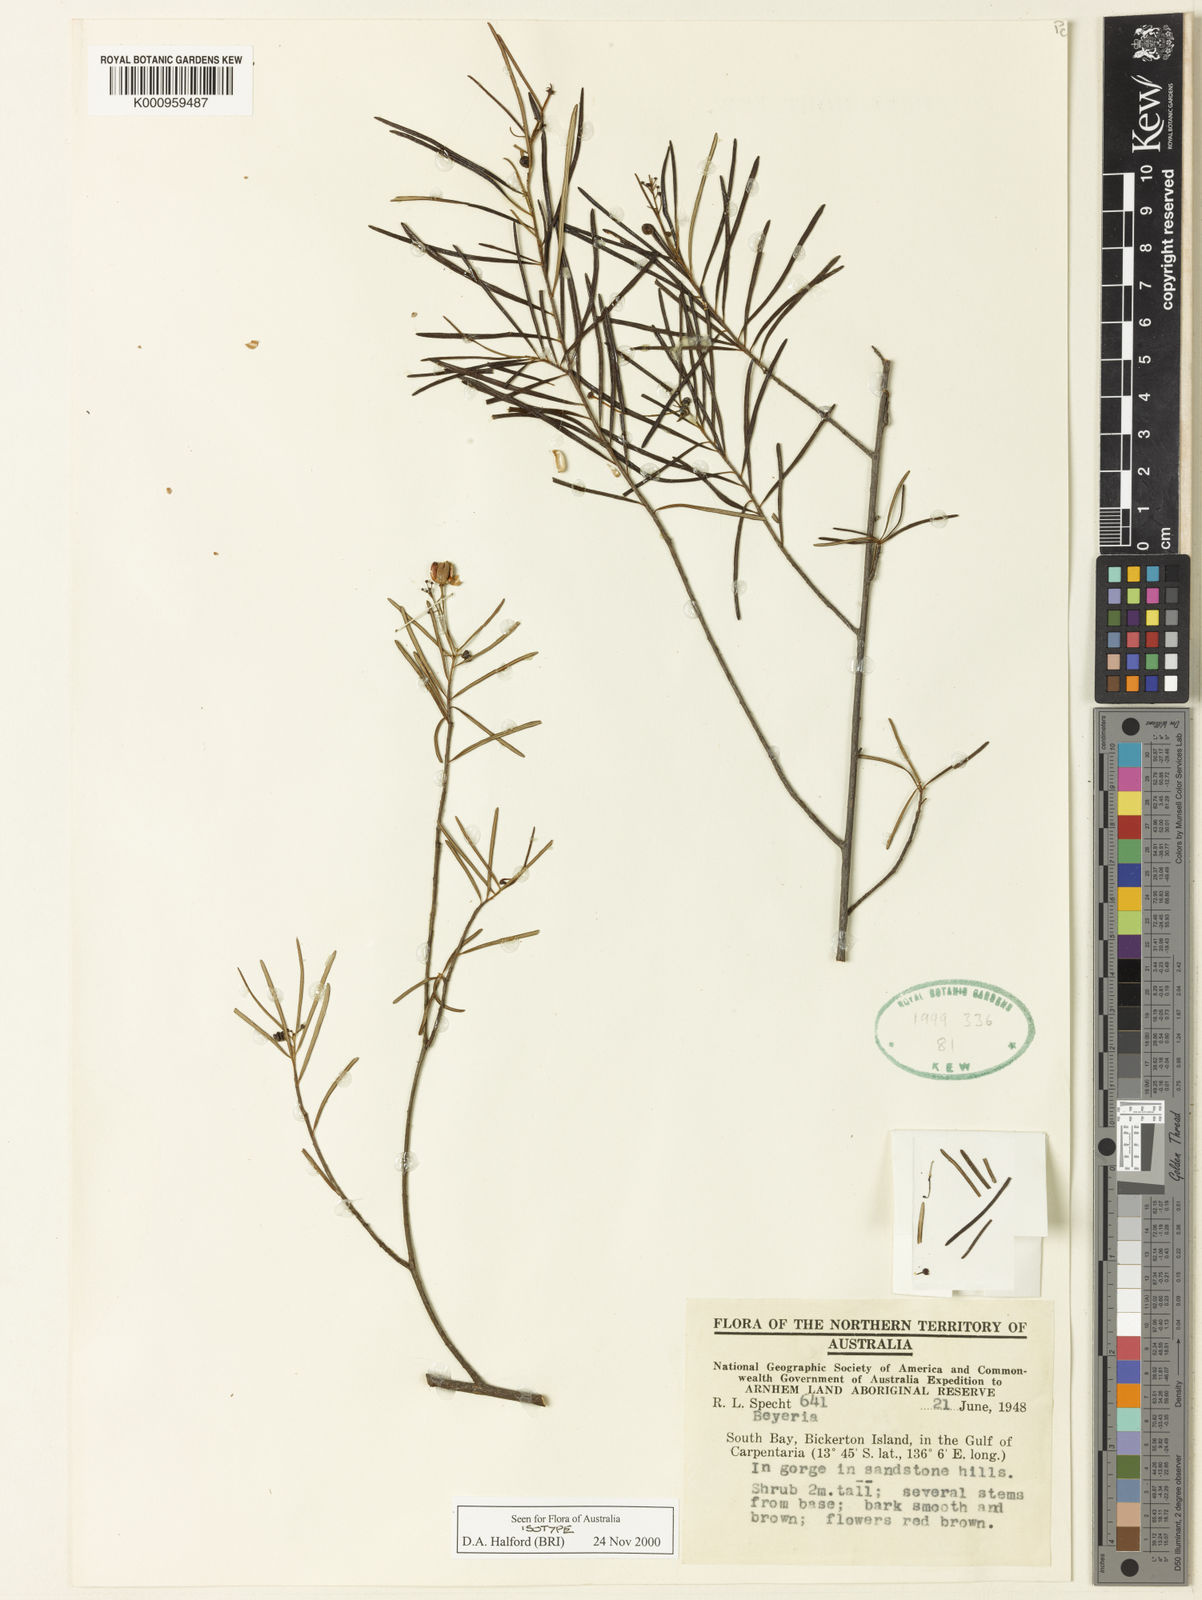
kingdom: Plantae
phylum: Tracheophyta
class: Magnoliopsida
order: Malpighiales
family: Euphorbiaceae
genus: Shonia
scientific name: Shonia bickertonensis
